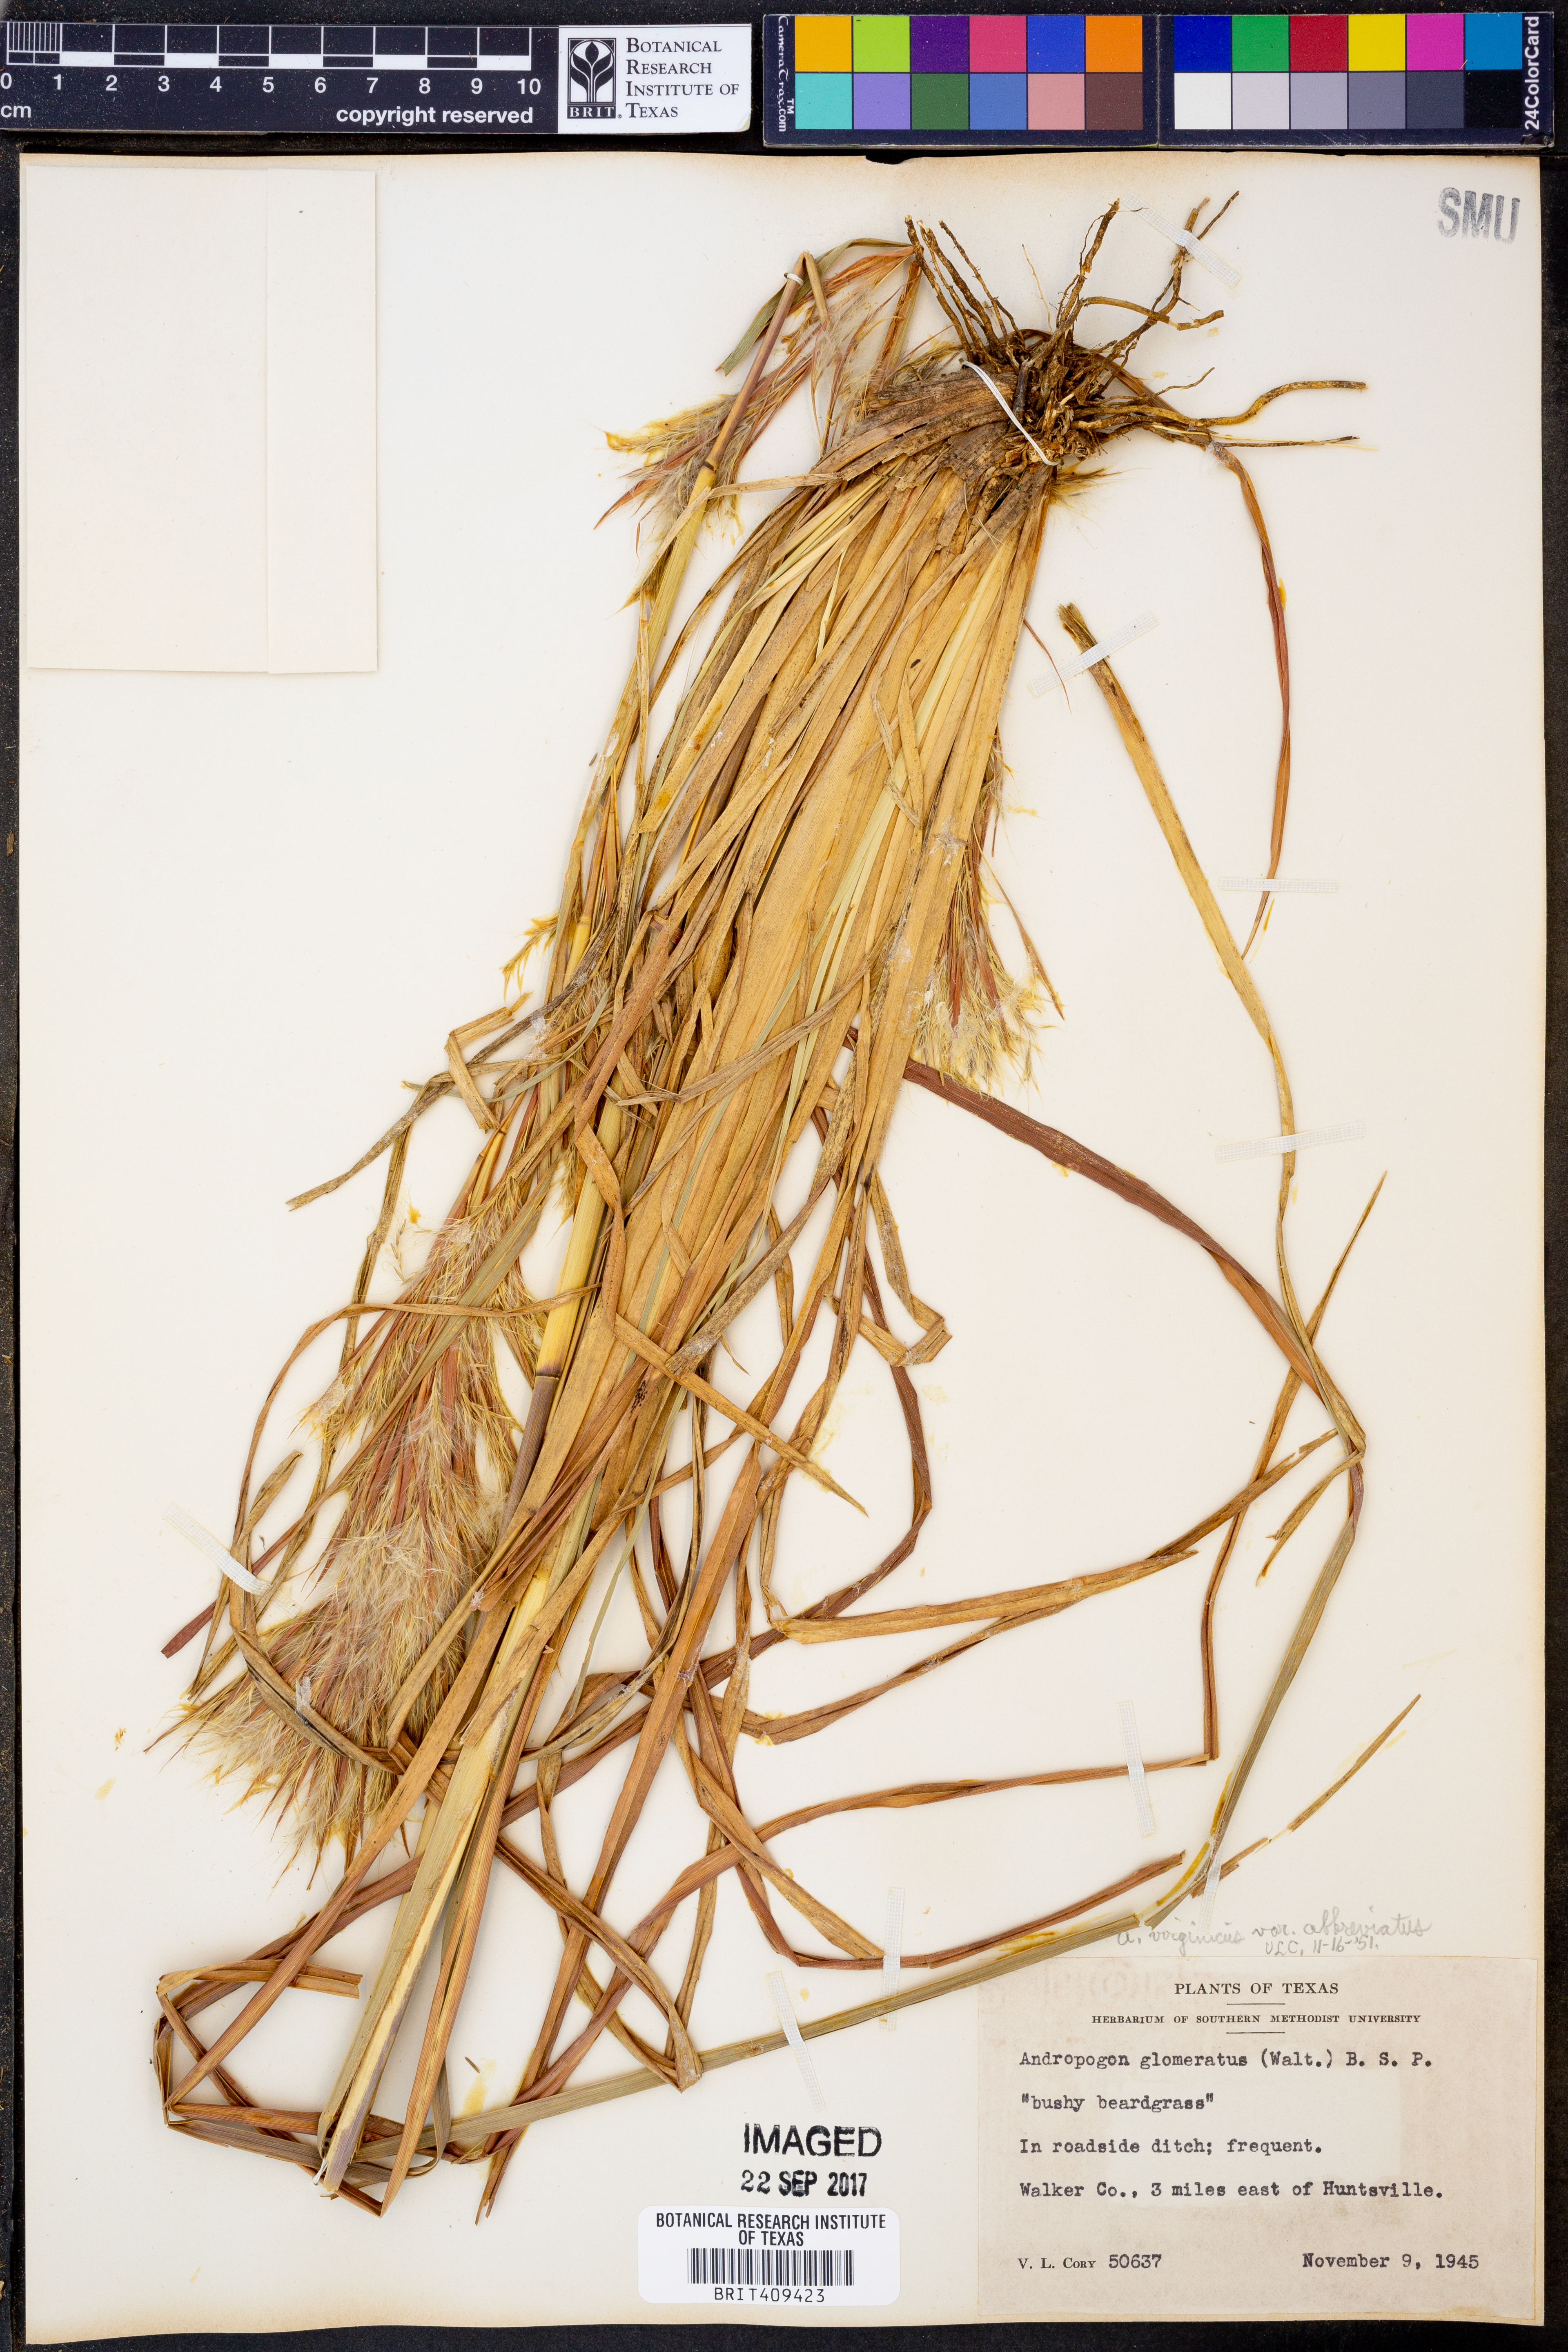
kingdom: Plantae
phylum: Tracheophyta
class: Liliopsida
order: Poales
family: Poaceae
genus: Andropogon
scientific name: Andropogon glomeratus
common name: Bushy beard grass
